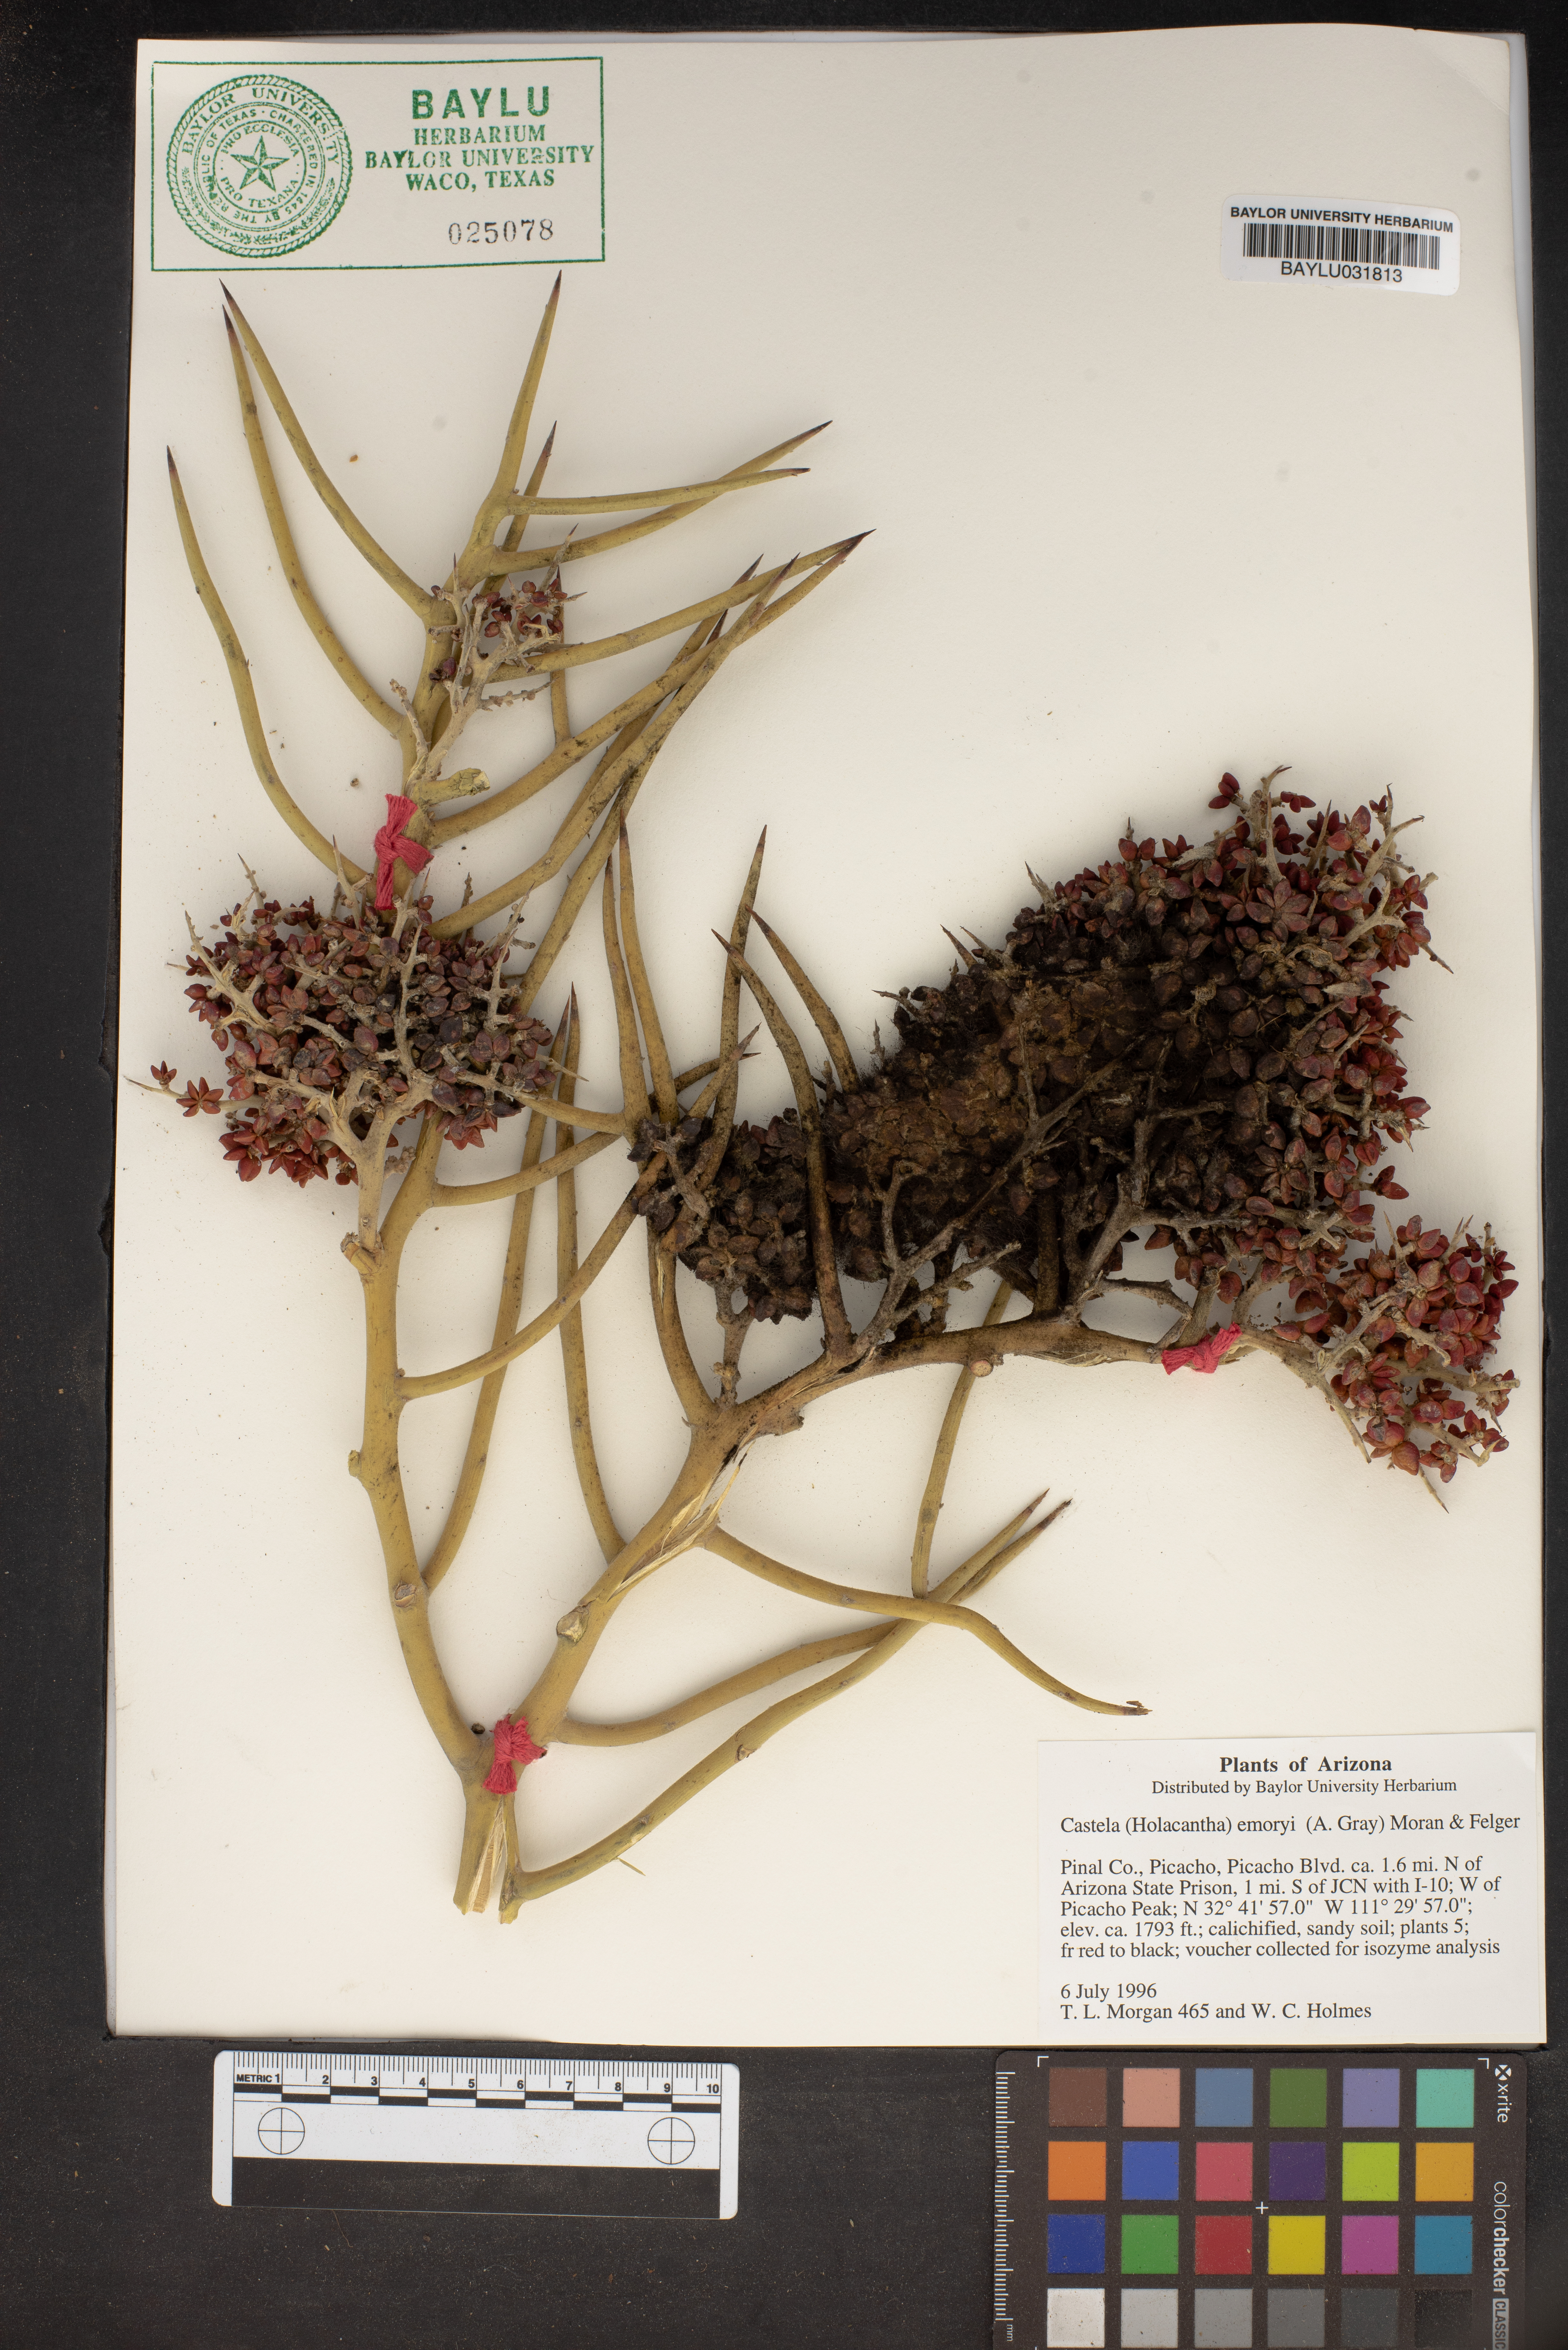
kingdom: Plantae
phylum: Tracheophyta
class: Magnoliopsida
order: Sapindales
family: Simaroubaceae
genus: Holacantha
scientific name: Holacantha emoryi
